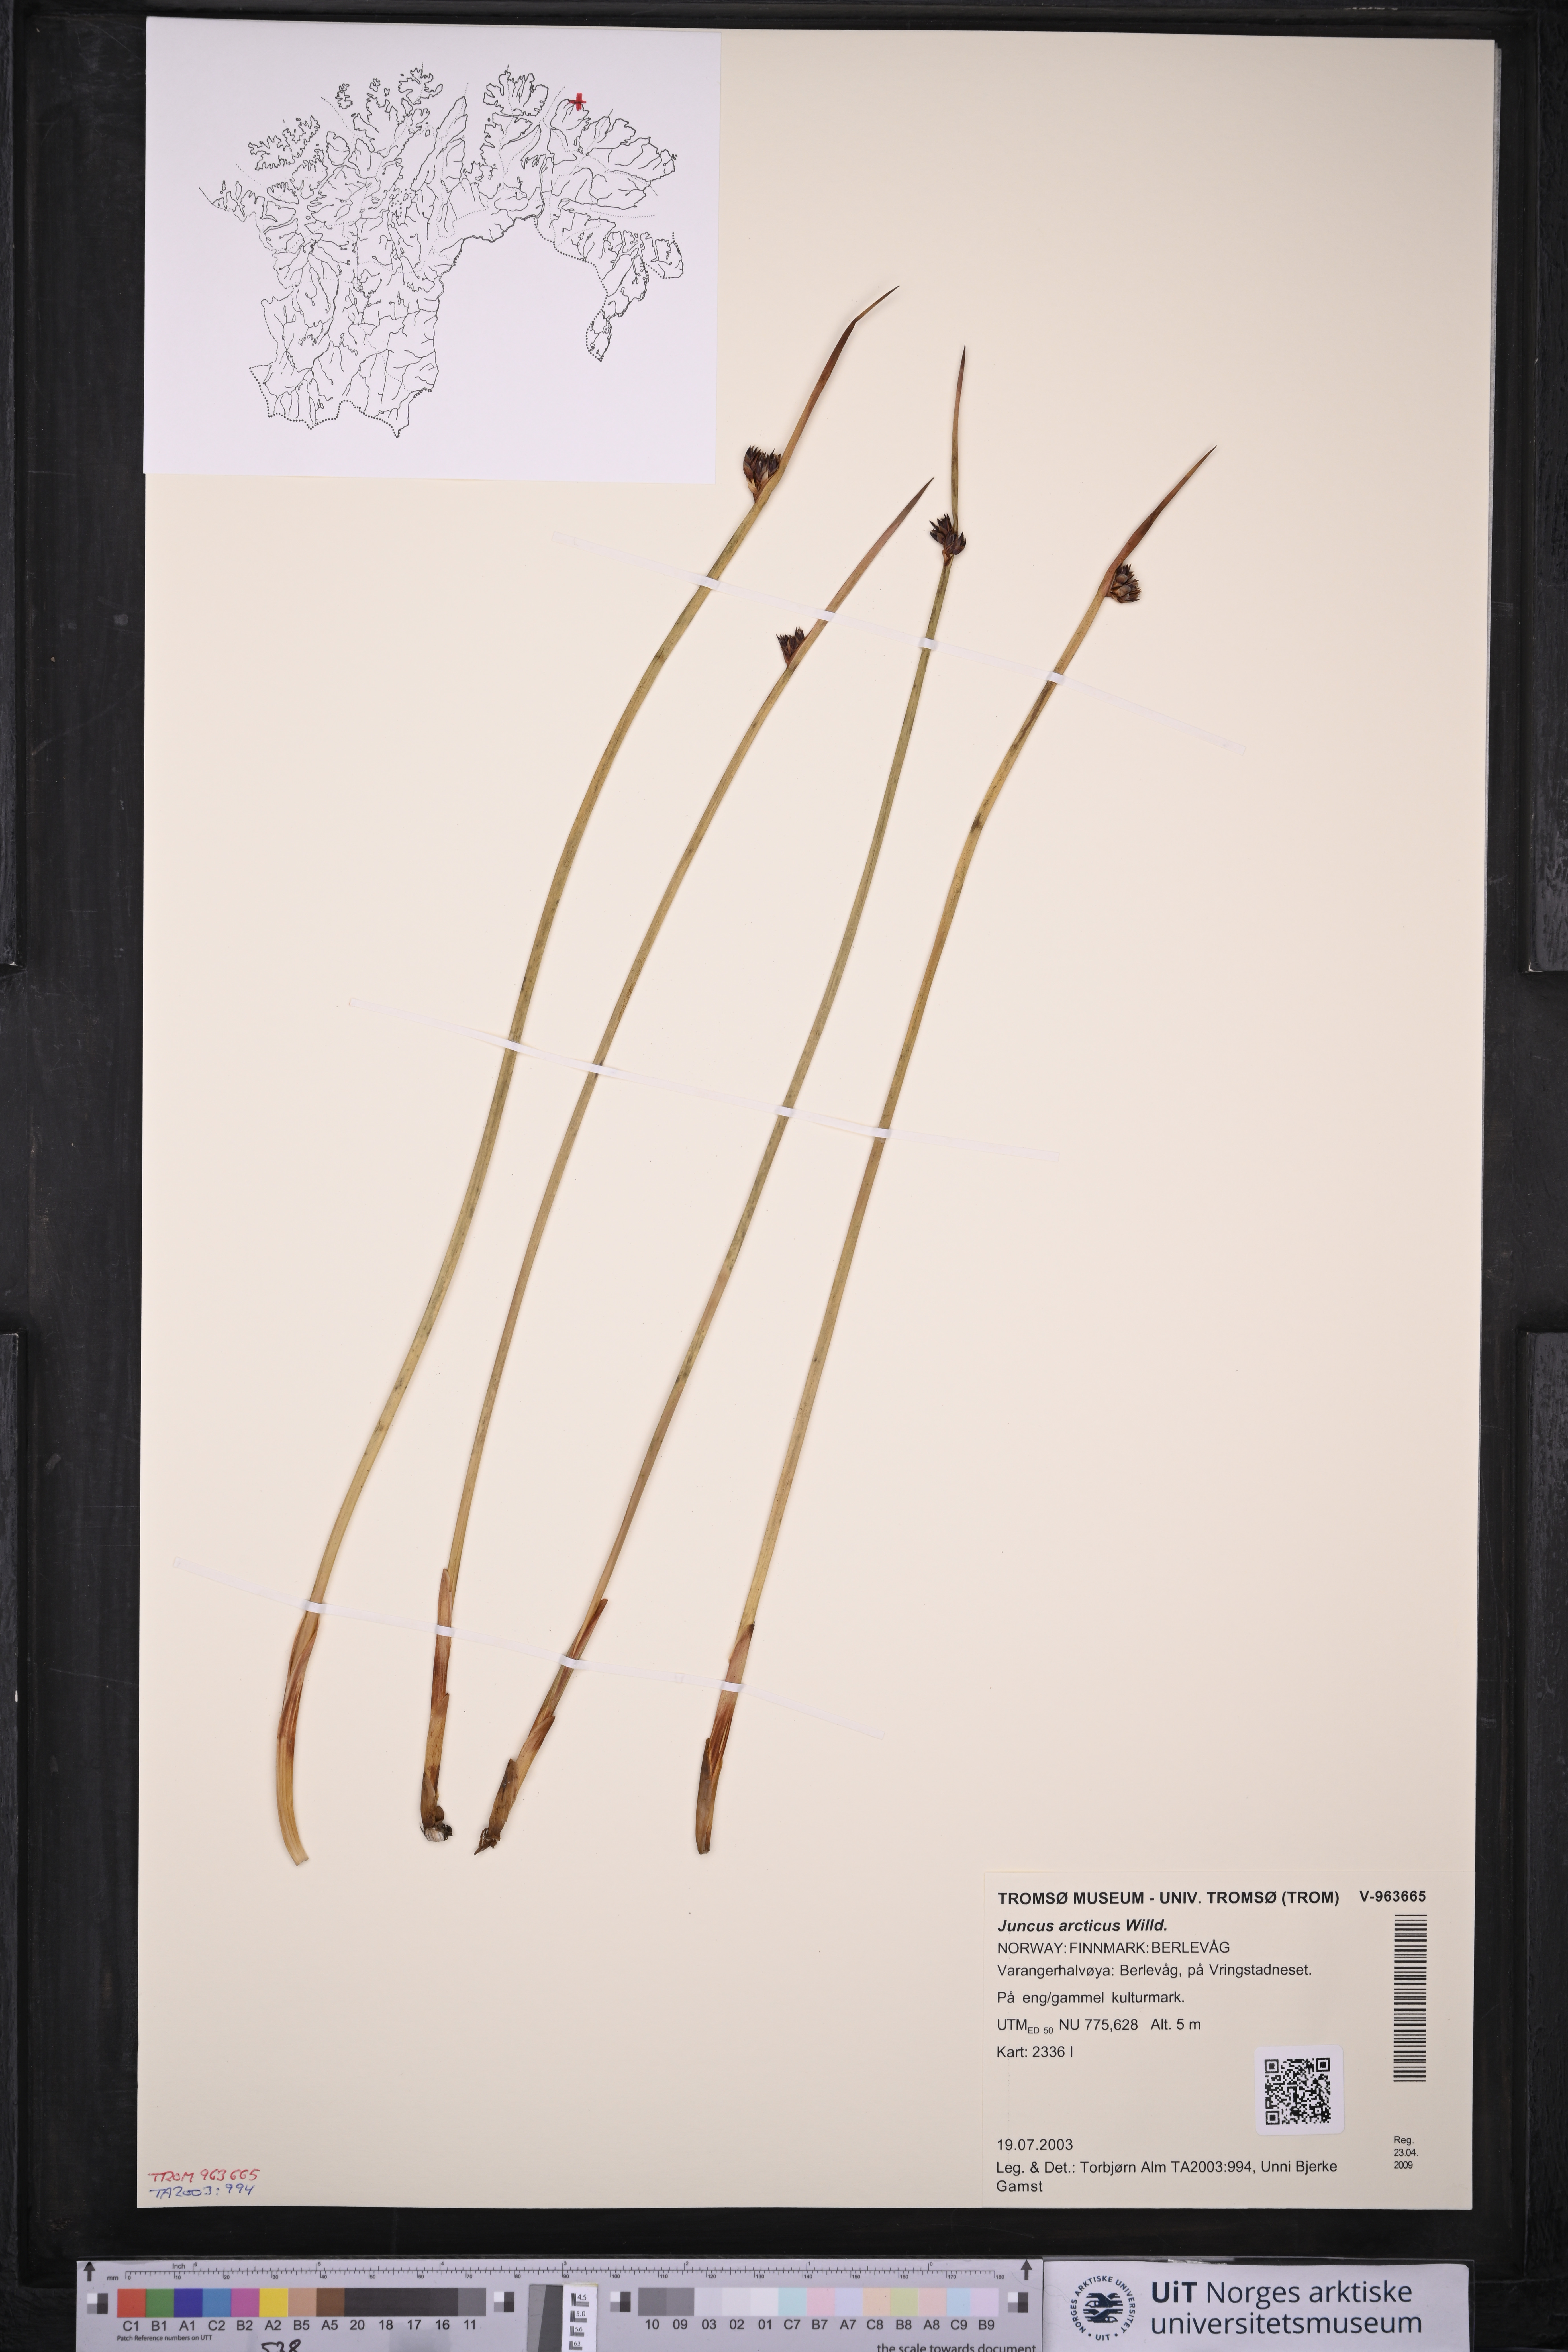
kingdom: Plantae
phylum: Tracheophyta
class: Liliopsida
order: Poales
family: Juncaceae
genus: Juncus
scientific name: Juncus arcticus
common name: Arctic rush
